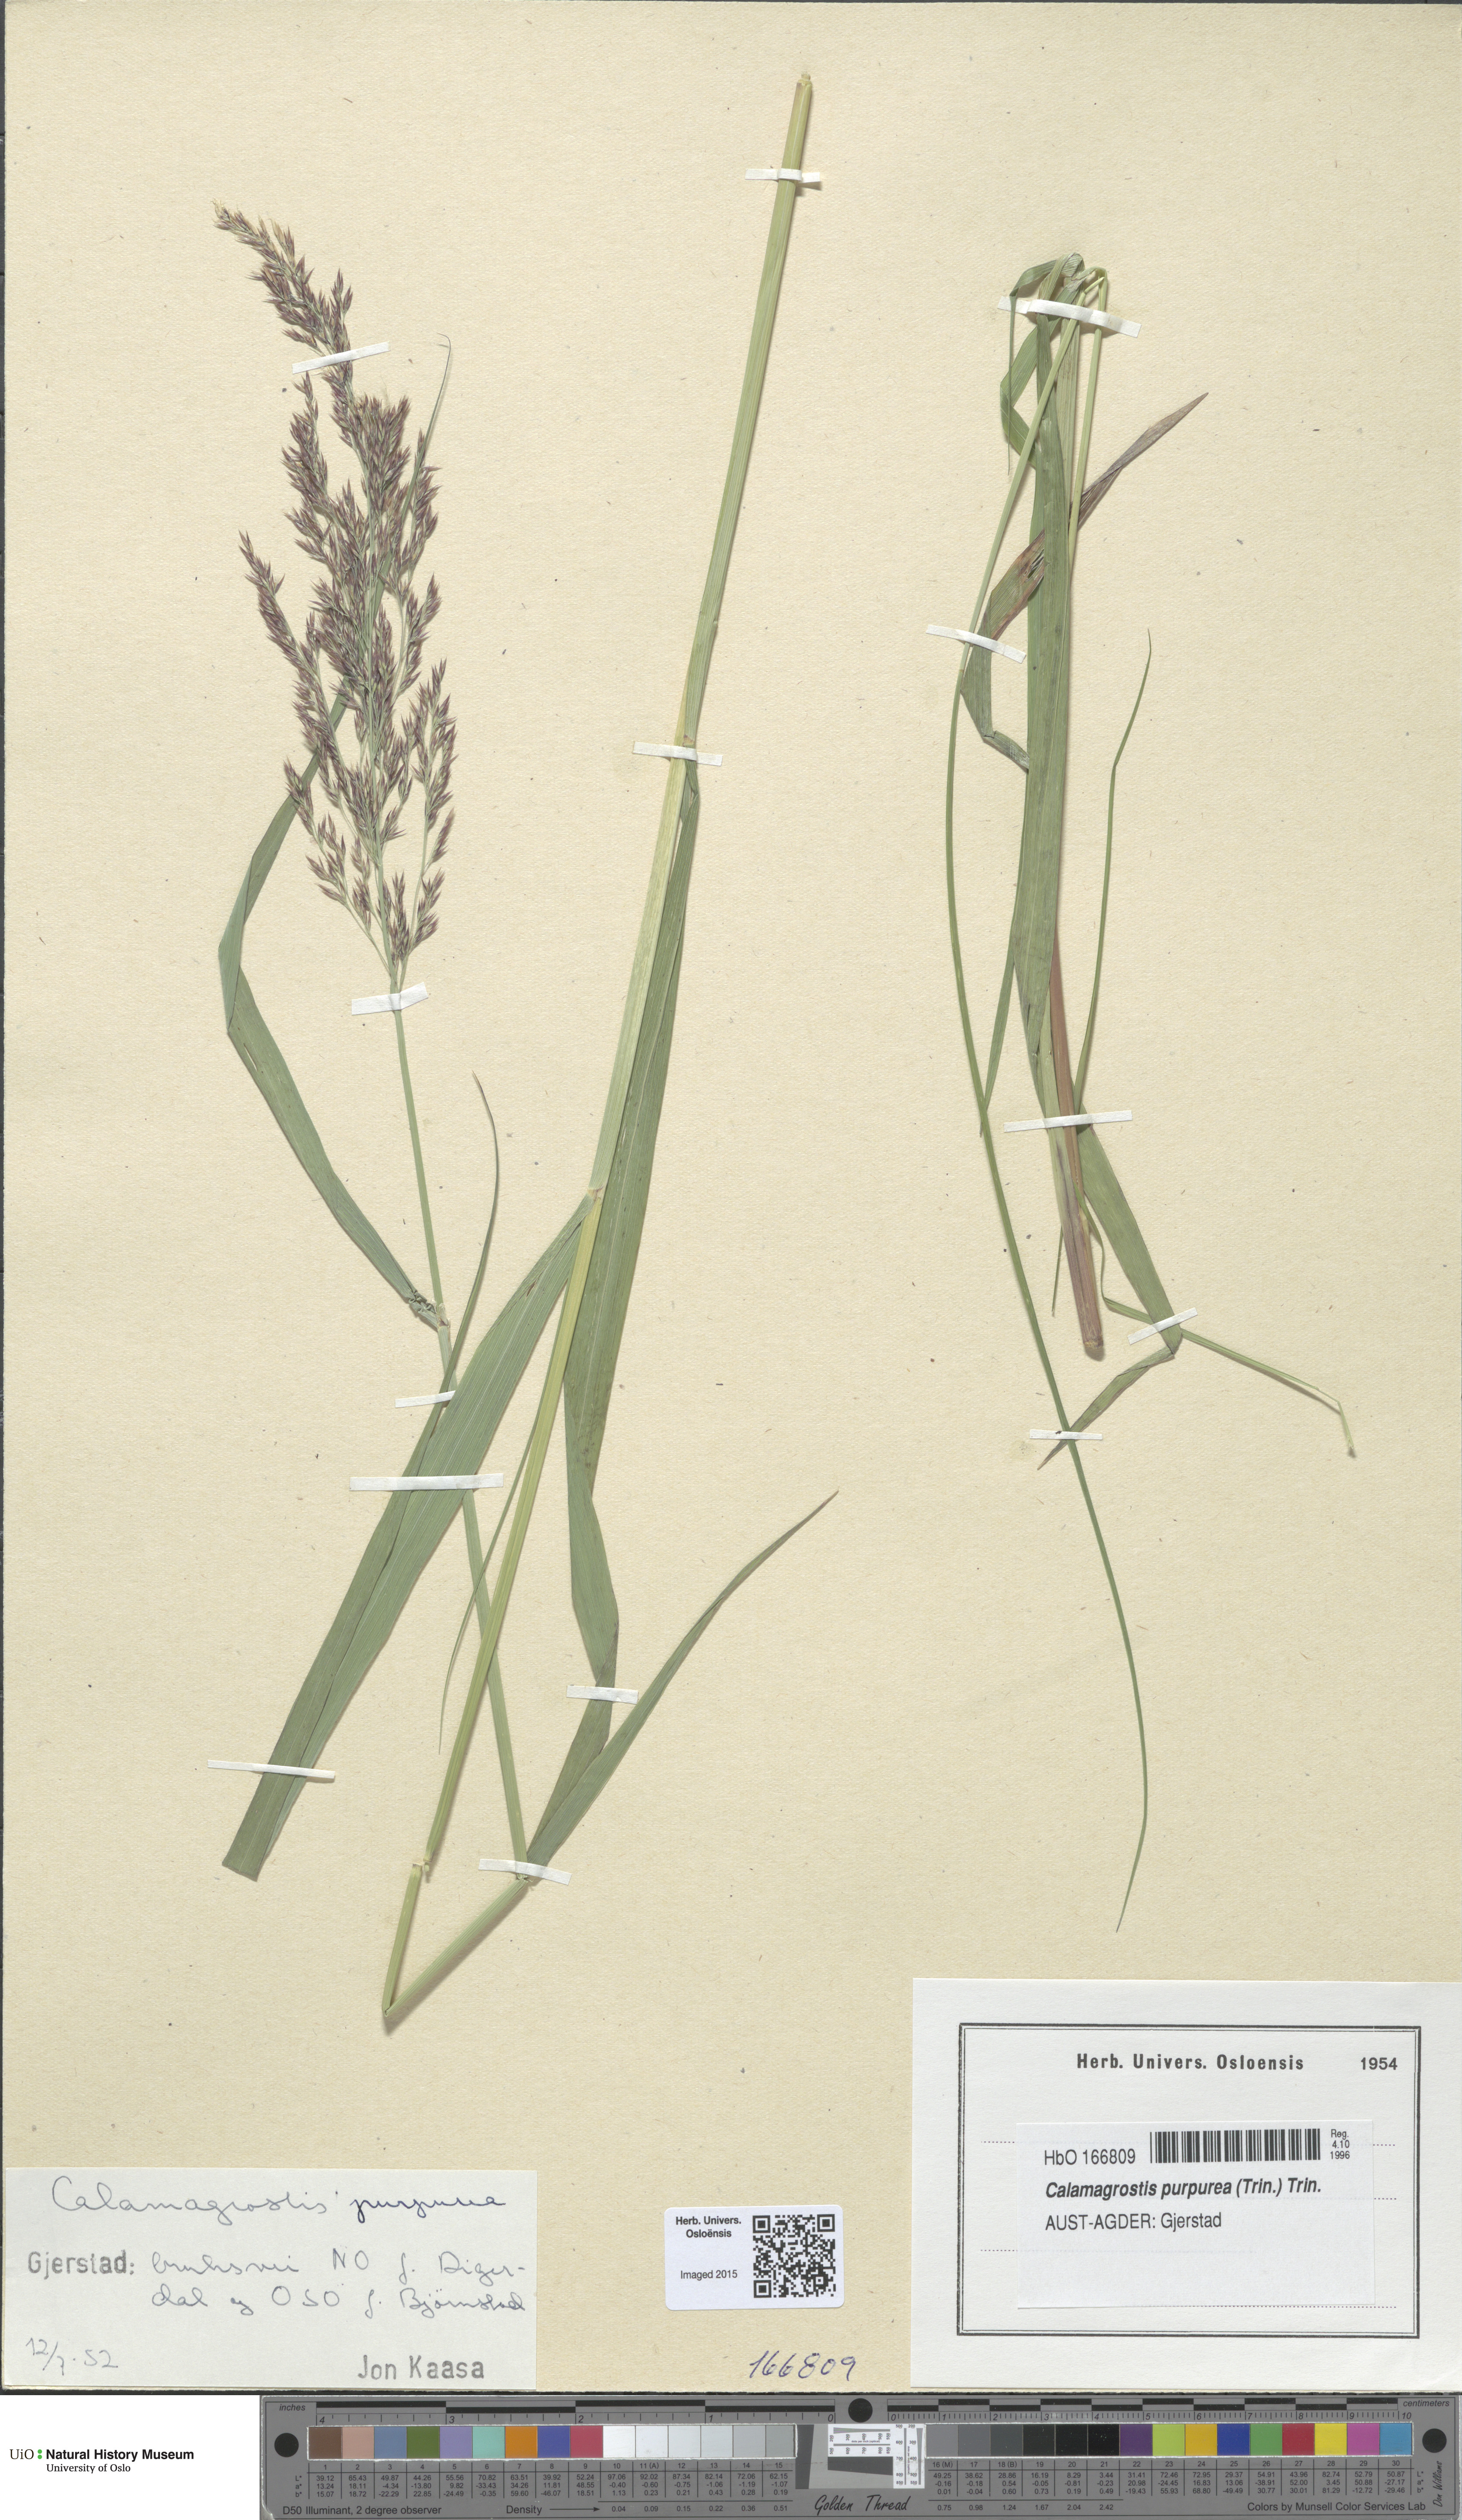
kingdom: Plantae
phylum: Tracheophyta
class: Liliopsida
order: Poales
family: Poaceae
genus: Calamagrostis
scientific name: Calamagrostis purpurea
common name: Scandinavian small-reed
